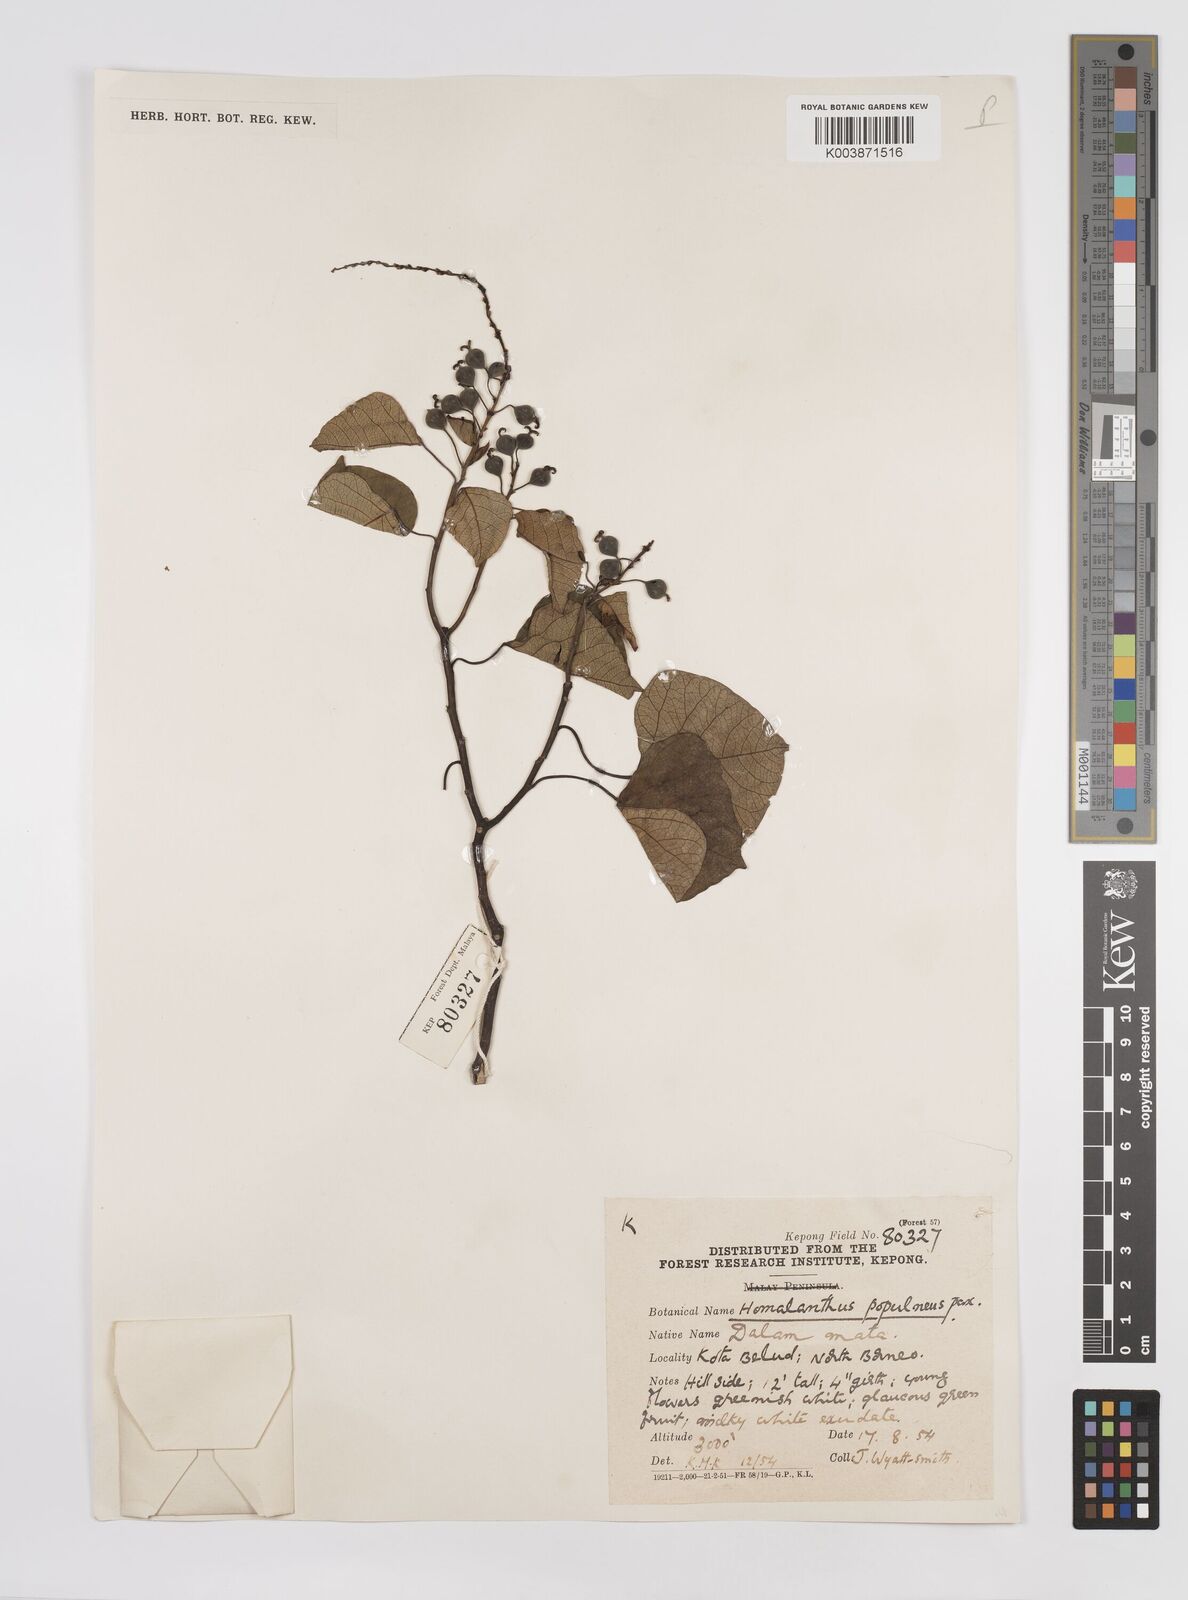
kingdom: Plantae
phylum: Tracheophyta
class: Magnoliopsida
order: Malpighiales
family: Euphorbiaceae
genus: Homalanthus
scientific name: Homalanthus populneus
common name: Spurge
